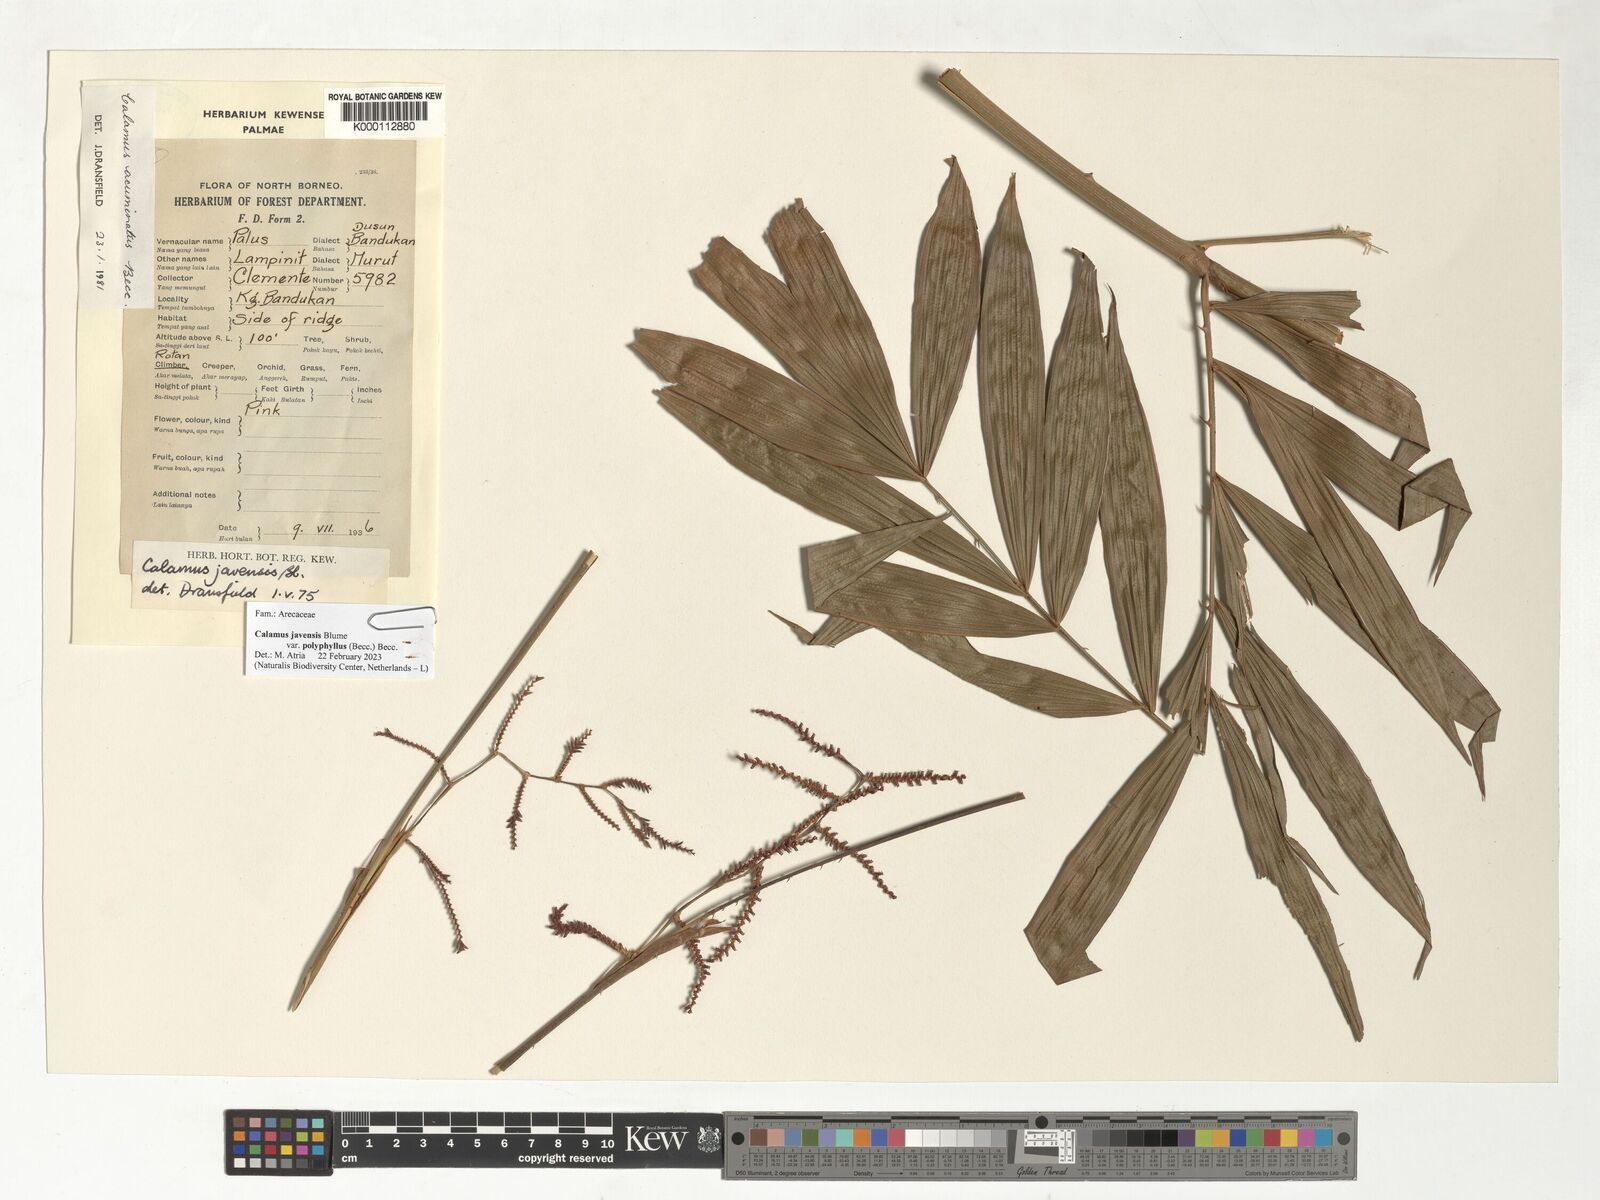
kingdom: Plantae
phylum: Tracheophyta
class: Liliopsida
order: Arecales
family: Arecaceae
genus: Calamus
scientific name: Calamus javensis
